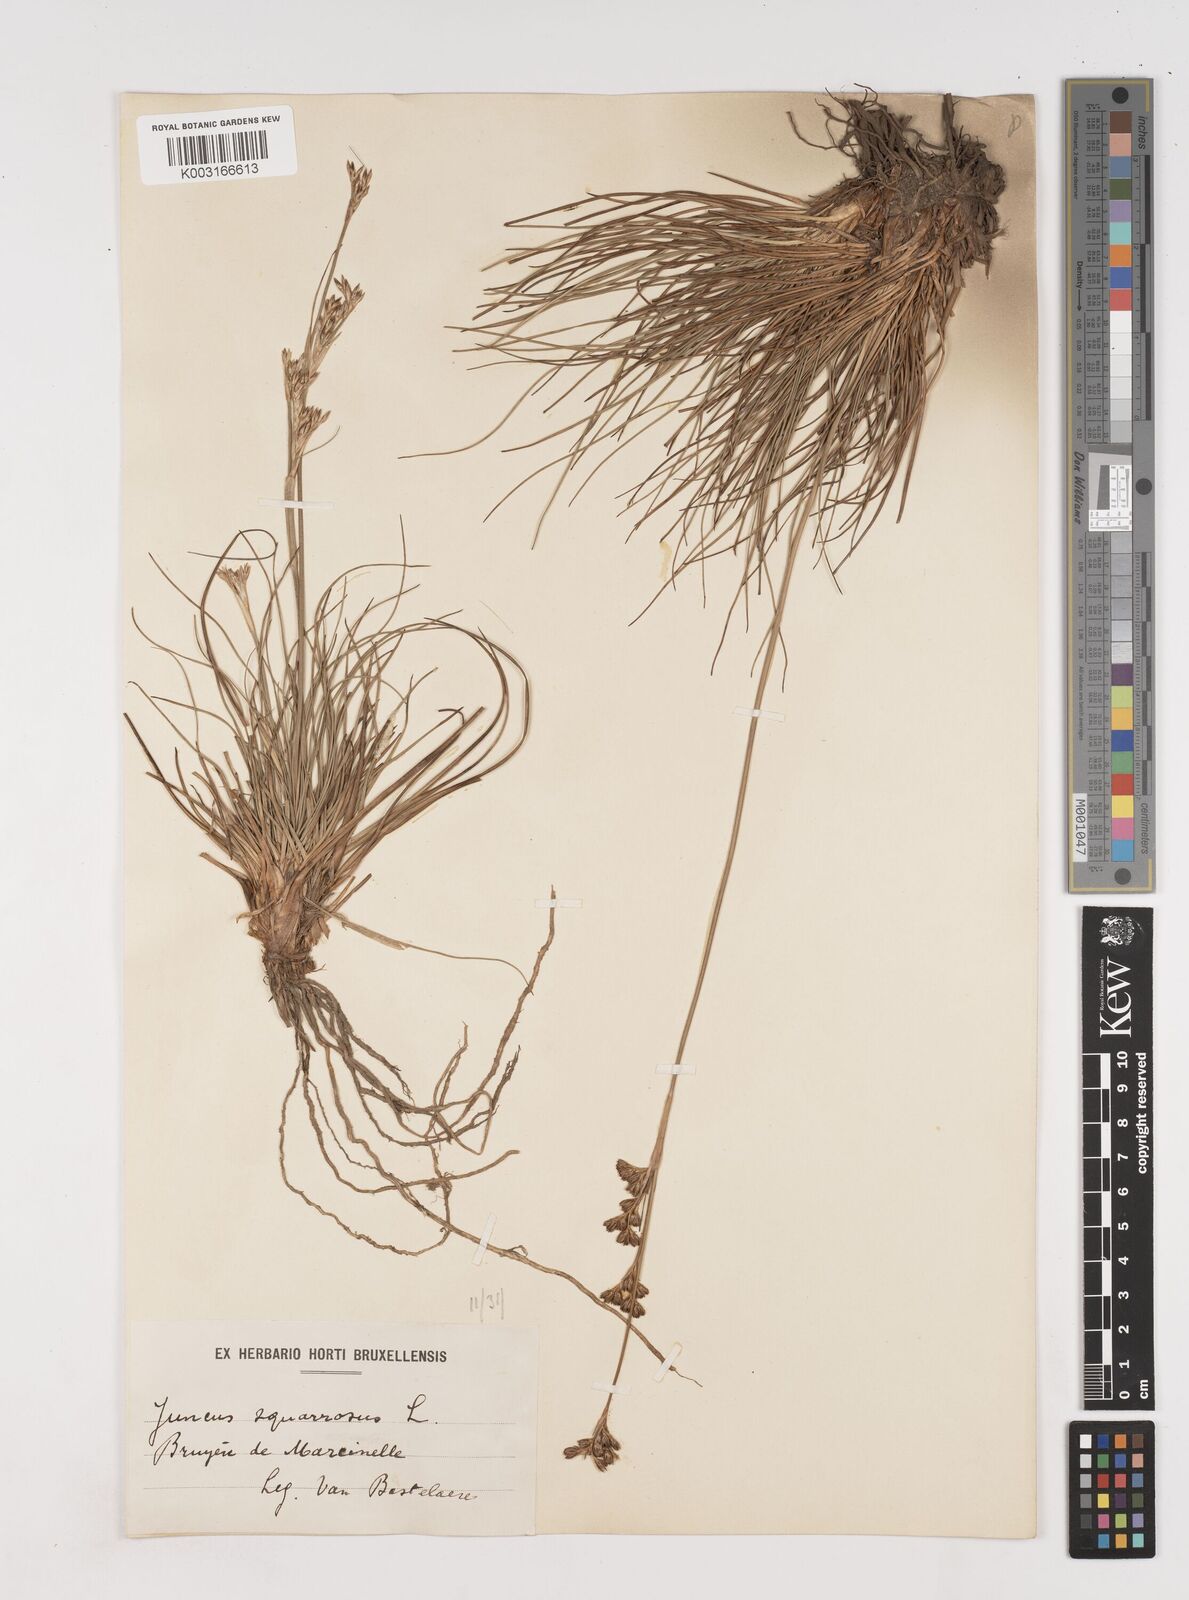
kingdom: Plantae
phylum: Tracheophyta
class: Liliopsida
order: Poales
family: Juncaceae
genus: Juncus
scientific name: Juncus squarrosus
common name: Heath rush
